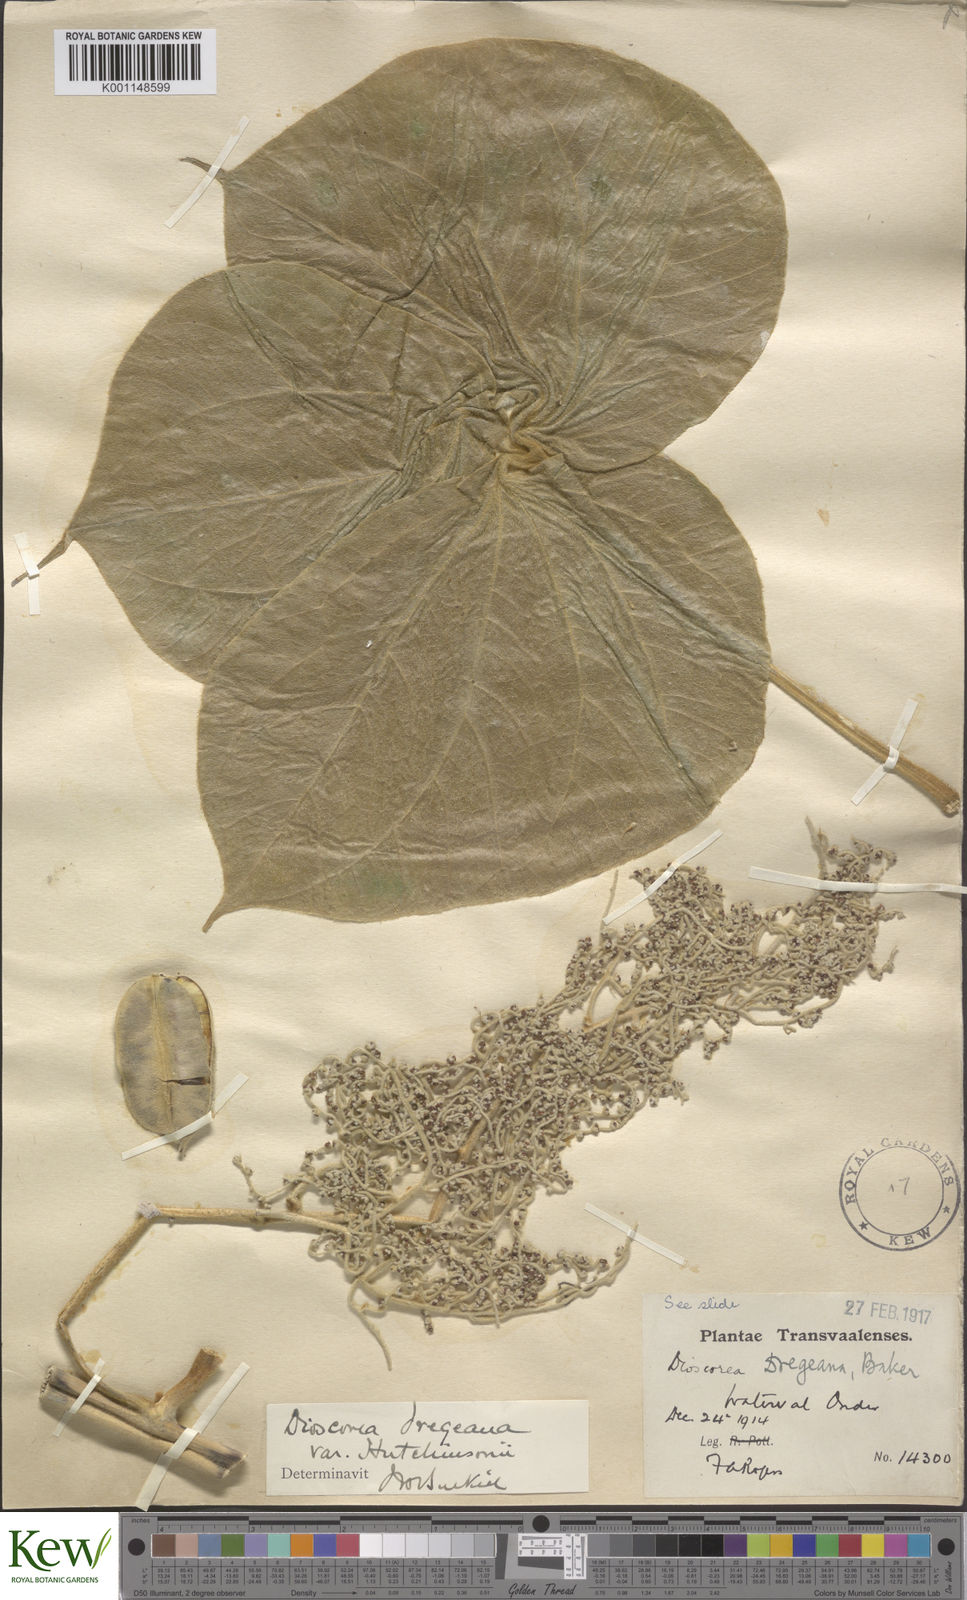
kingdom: Plantae
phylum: Tracheophyta
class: Liliopsida
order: Dioscoreales
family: Dioscoreaceae
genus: Dioscorea
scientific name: Dioscorea dregeana
